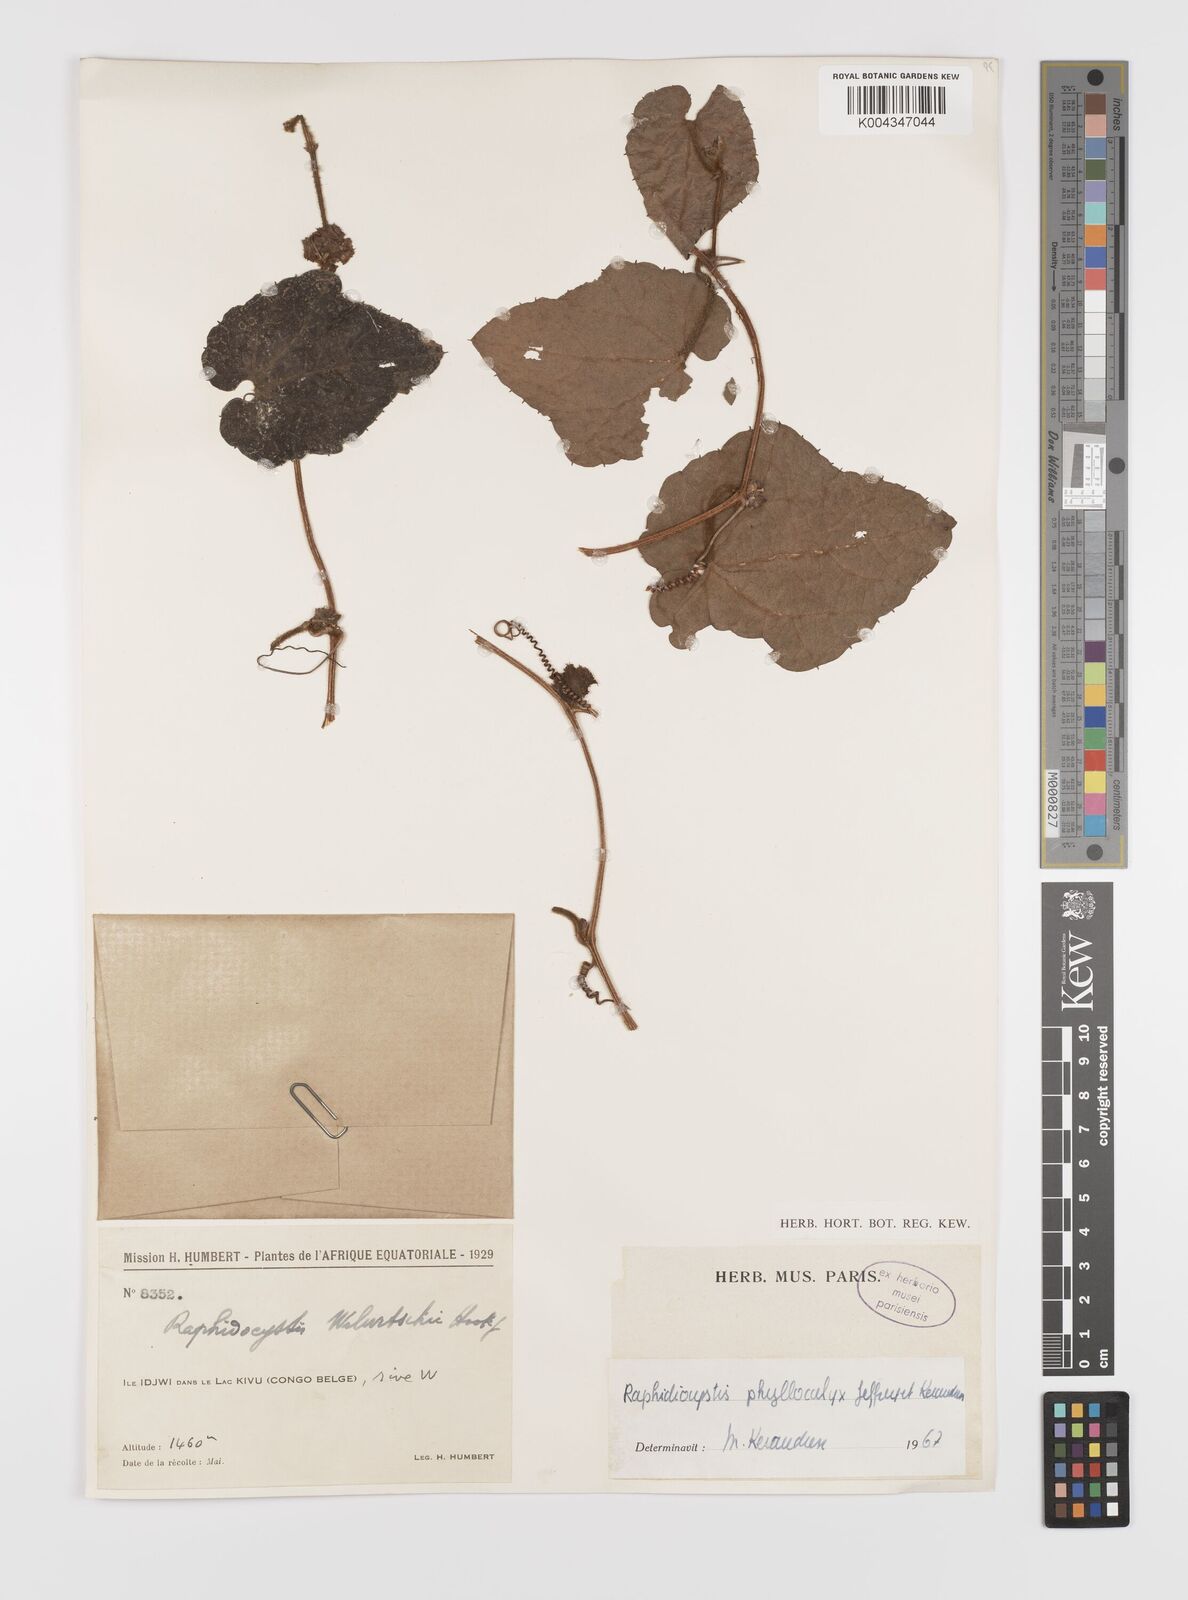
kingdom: Plantae
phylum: Tracheophyta
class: Magnoliopsida
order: Cucurbitales
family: Cucurbitaceae
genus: Raphidiocystis
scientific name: Raphidiocystis phyllocalyx
